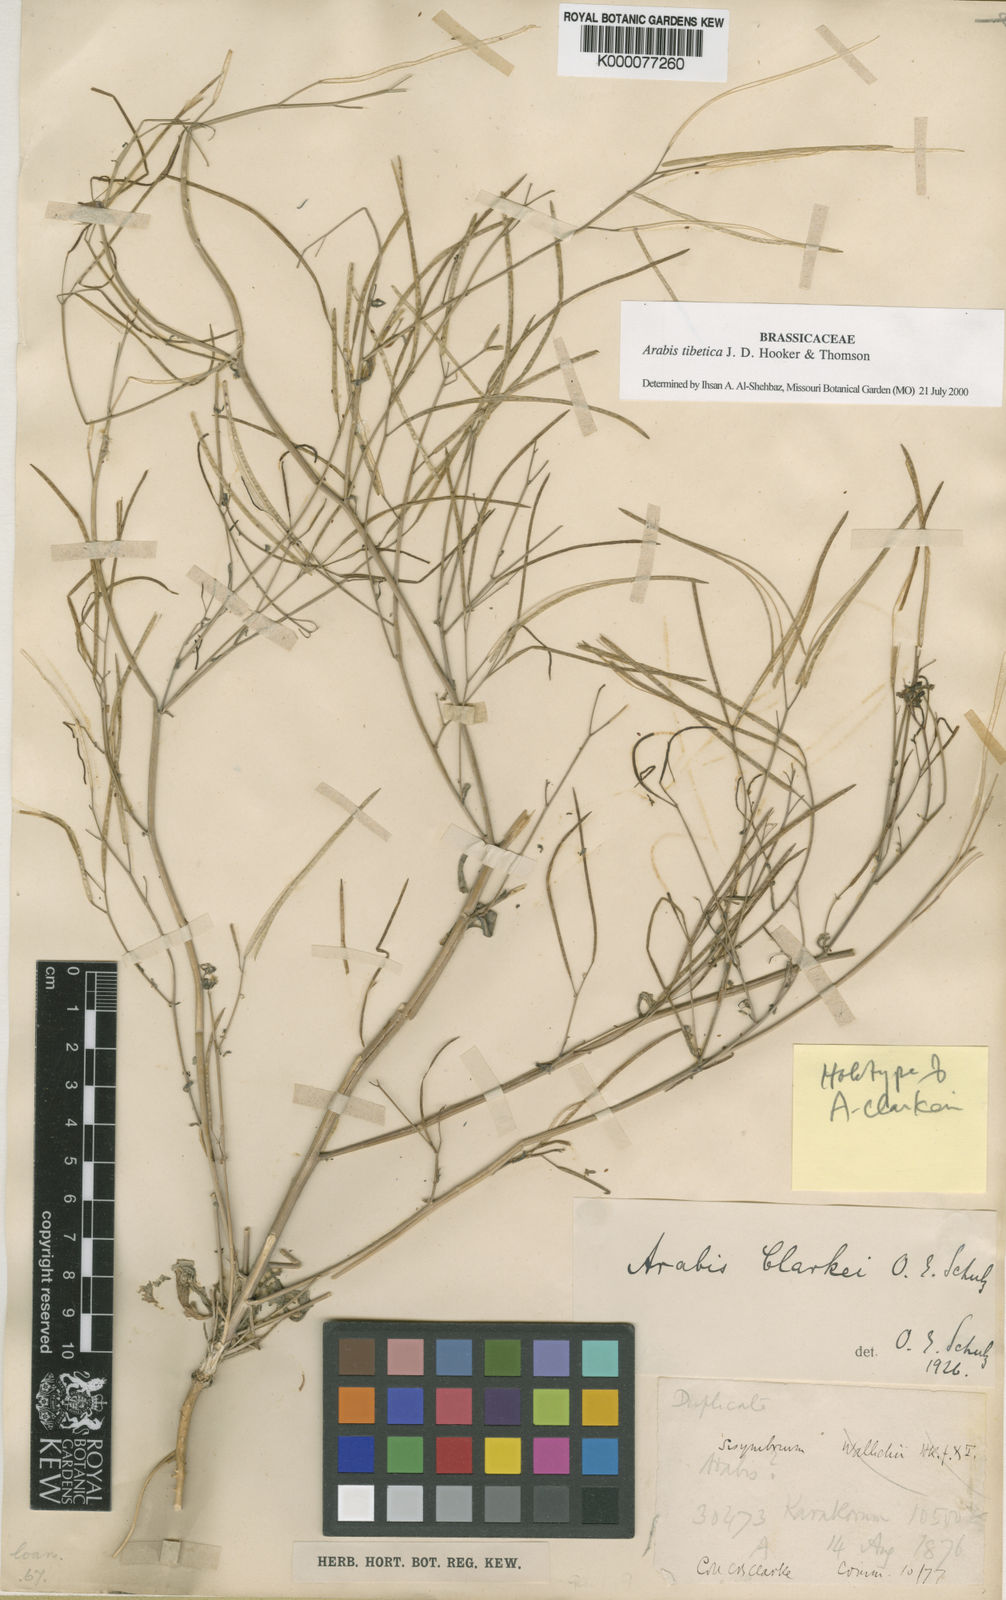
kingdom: Plantae
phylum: Tracheophyta
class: Magnoliopsida
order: Brassicales
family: Brassicaceae
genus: Crucihimalaya
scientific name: Crucihimalaya tibetica
